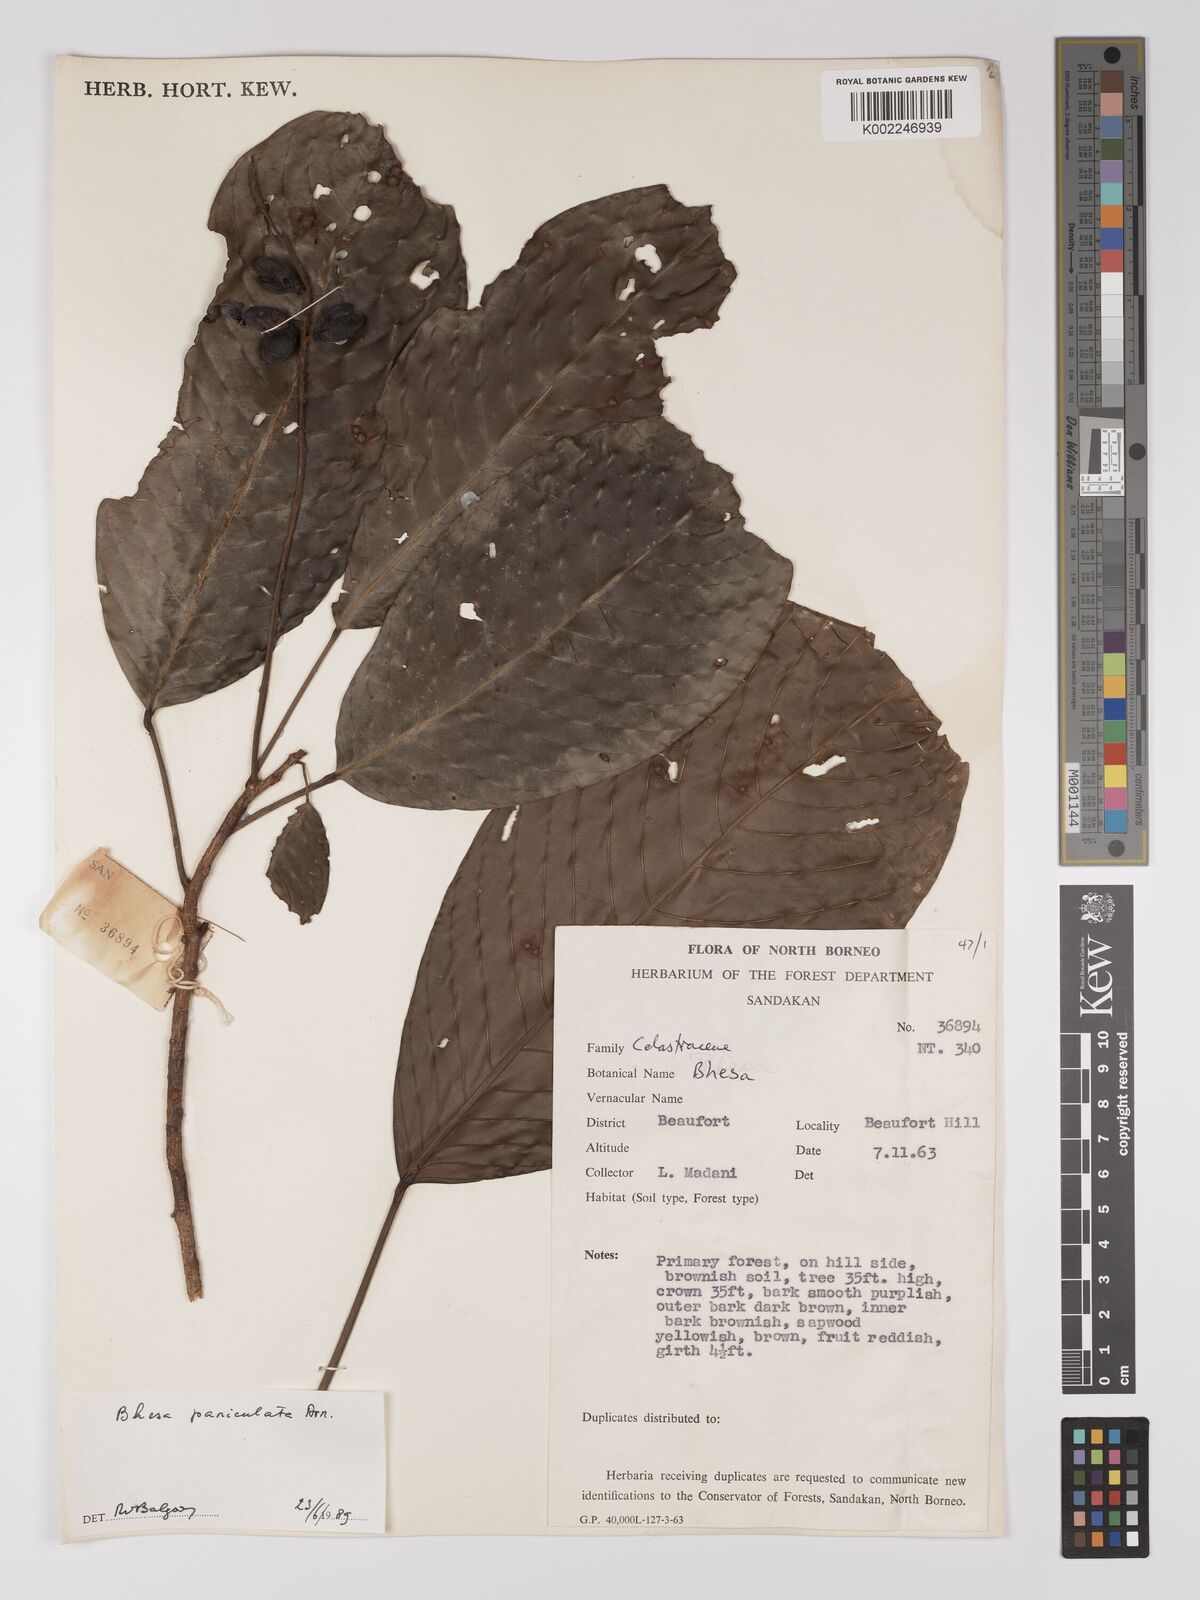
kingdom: Plantae
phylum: Tracheophyta
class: Magnoliopsida
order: Malpighiales
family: Centroplacaceae
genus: Bhesa
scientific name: Bhesa paniculata
